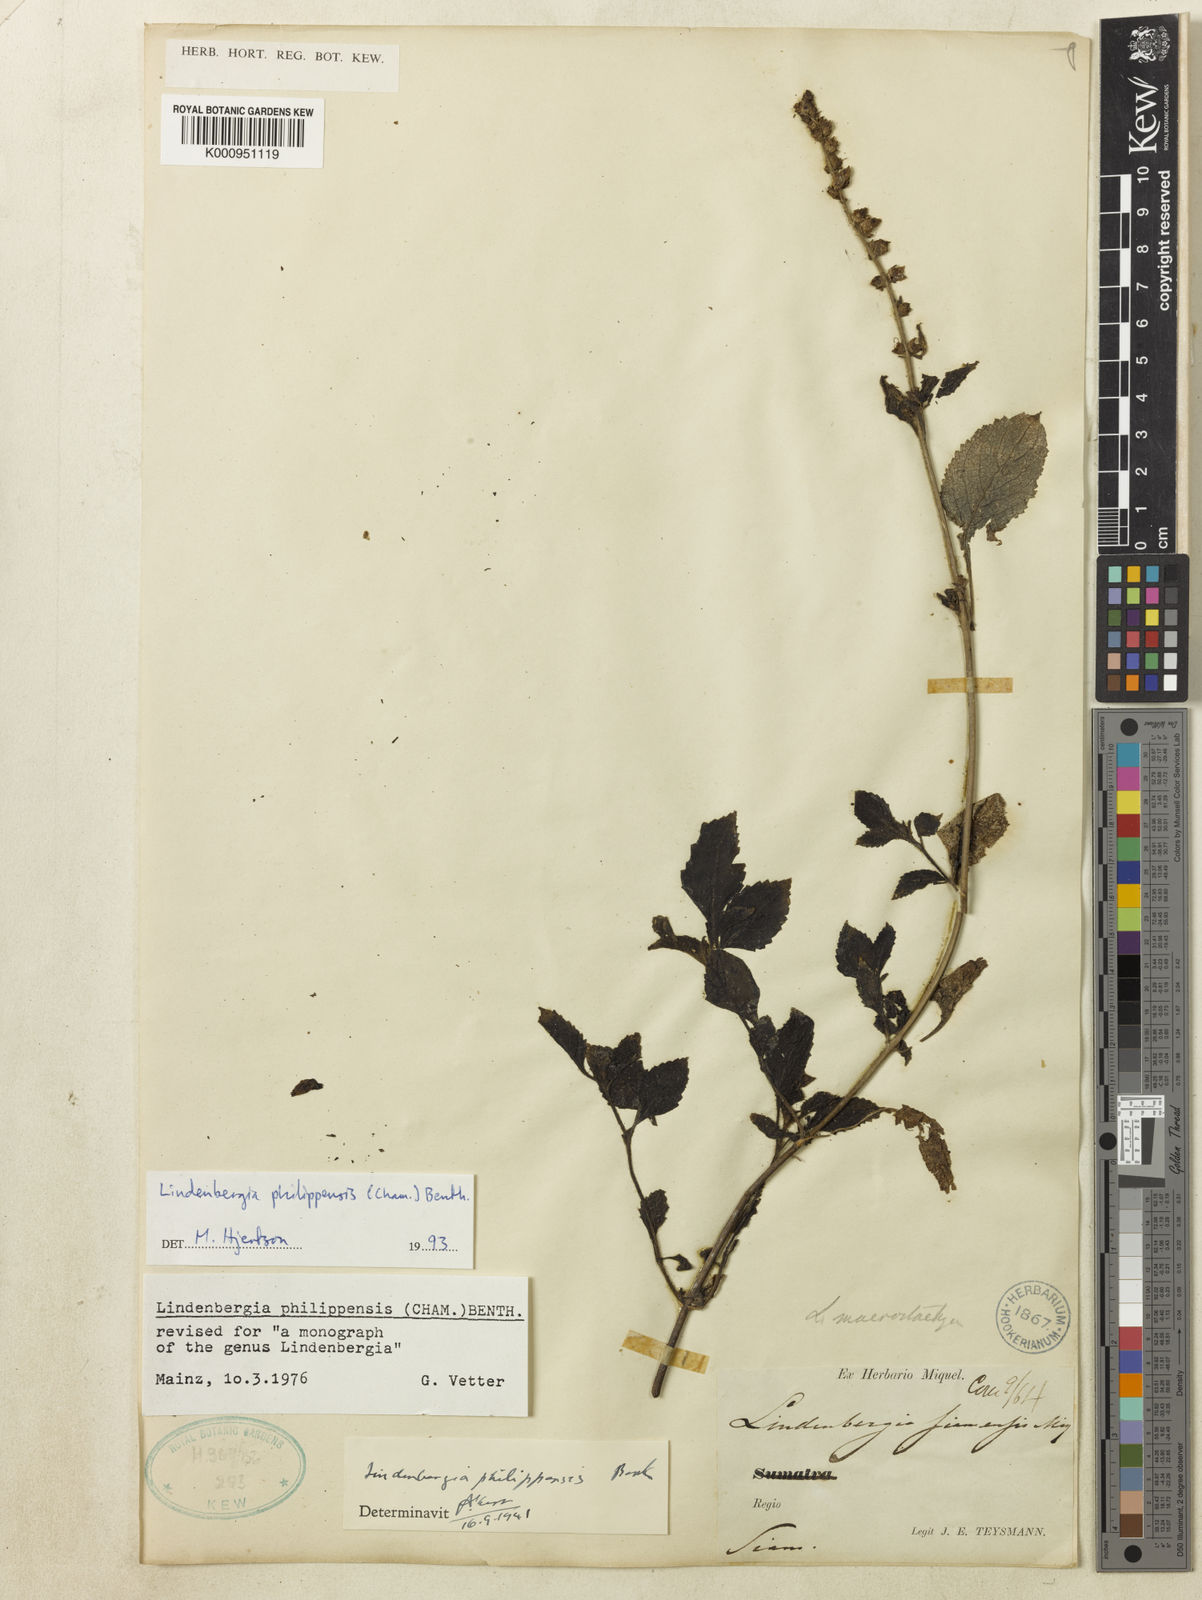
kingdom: Plantae
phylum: Tracheophyta
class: Magnoliopsida
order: Lamiales
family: Orobanchaceae
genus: Lindenbergia
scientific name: Lindenbergia philippensis
